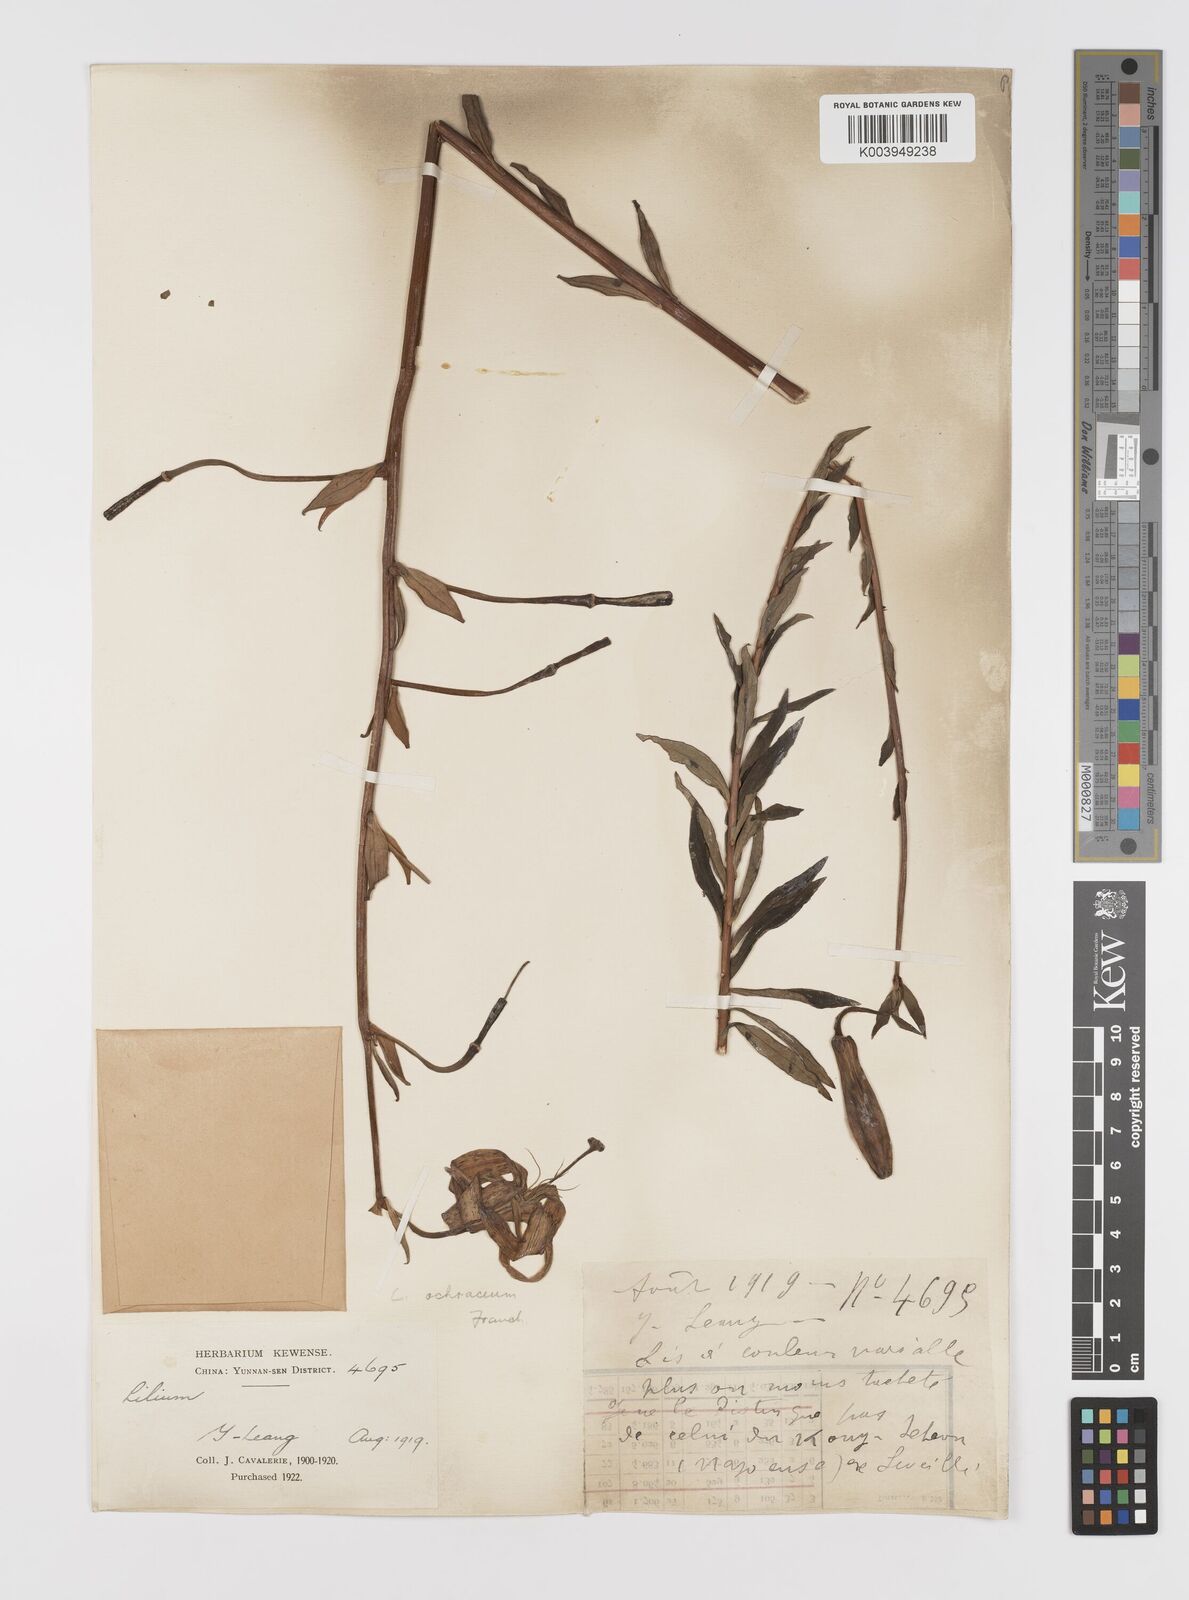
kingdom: Plantae
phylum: Tracheophyta
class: Liliopsida
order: Liliales
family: Liliaceae
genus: Lilium
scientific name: Lilium primulinum
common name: Ochre lily
